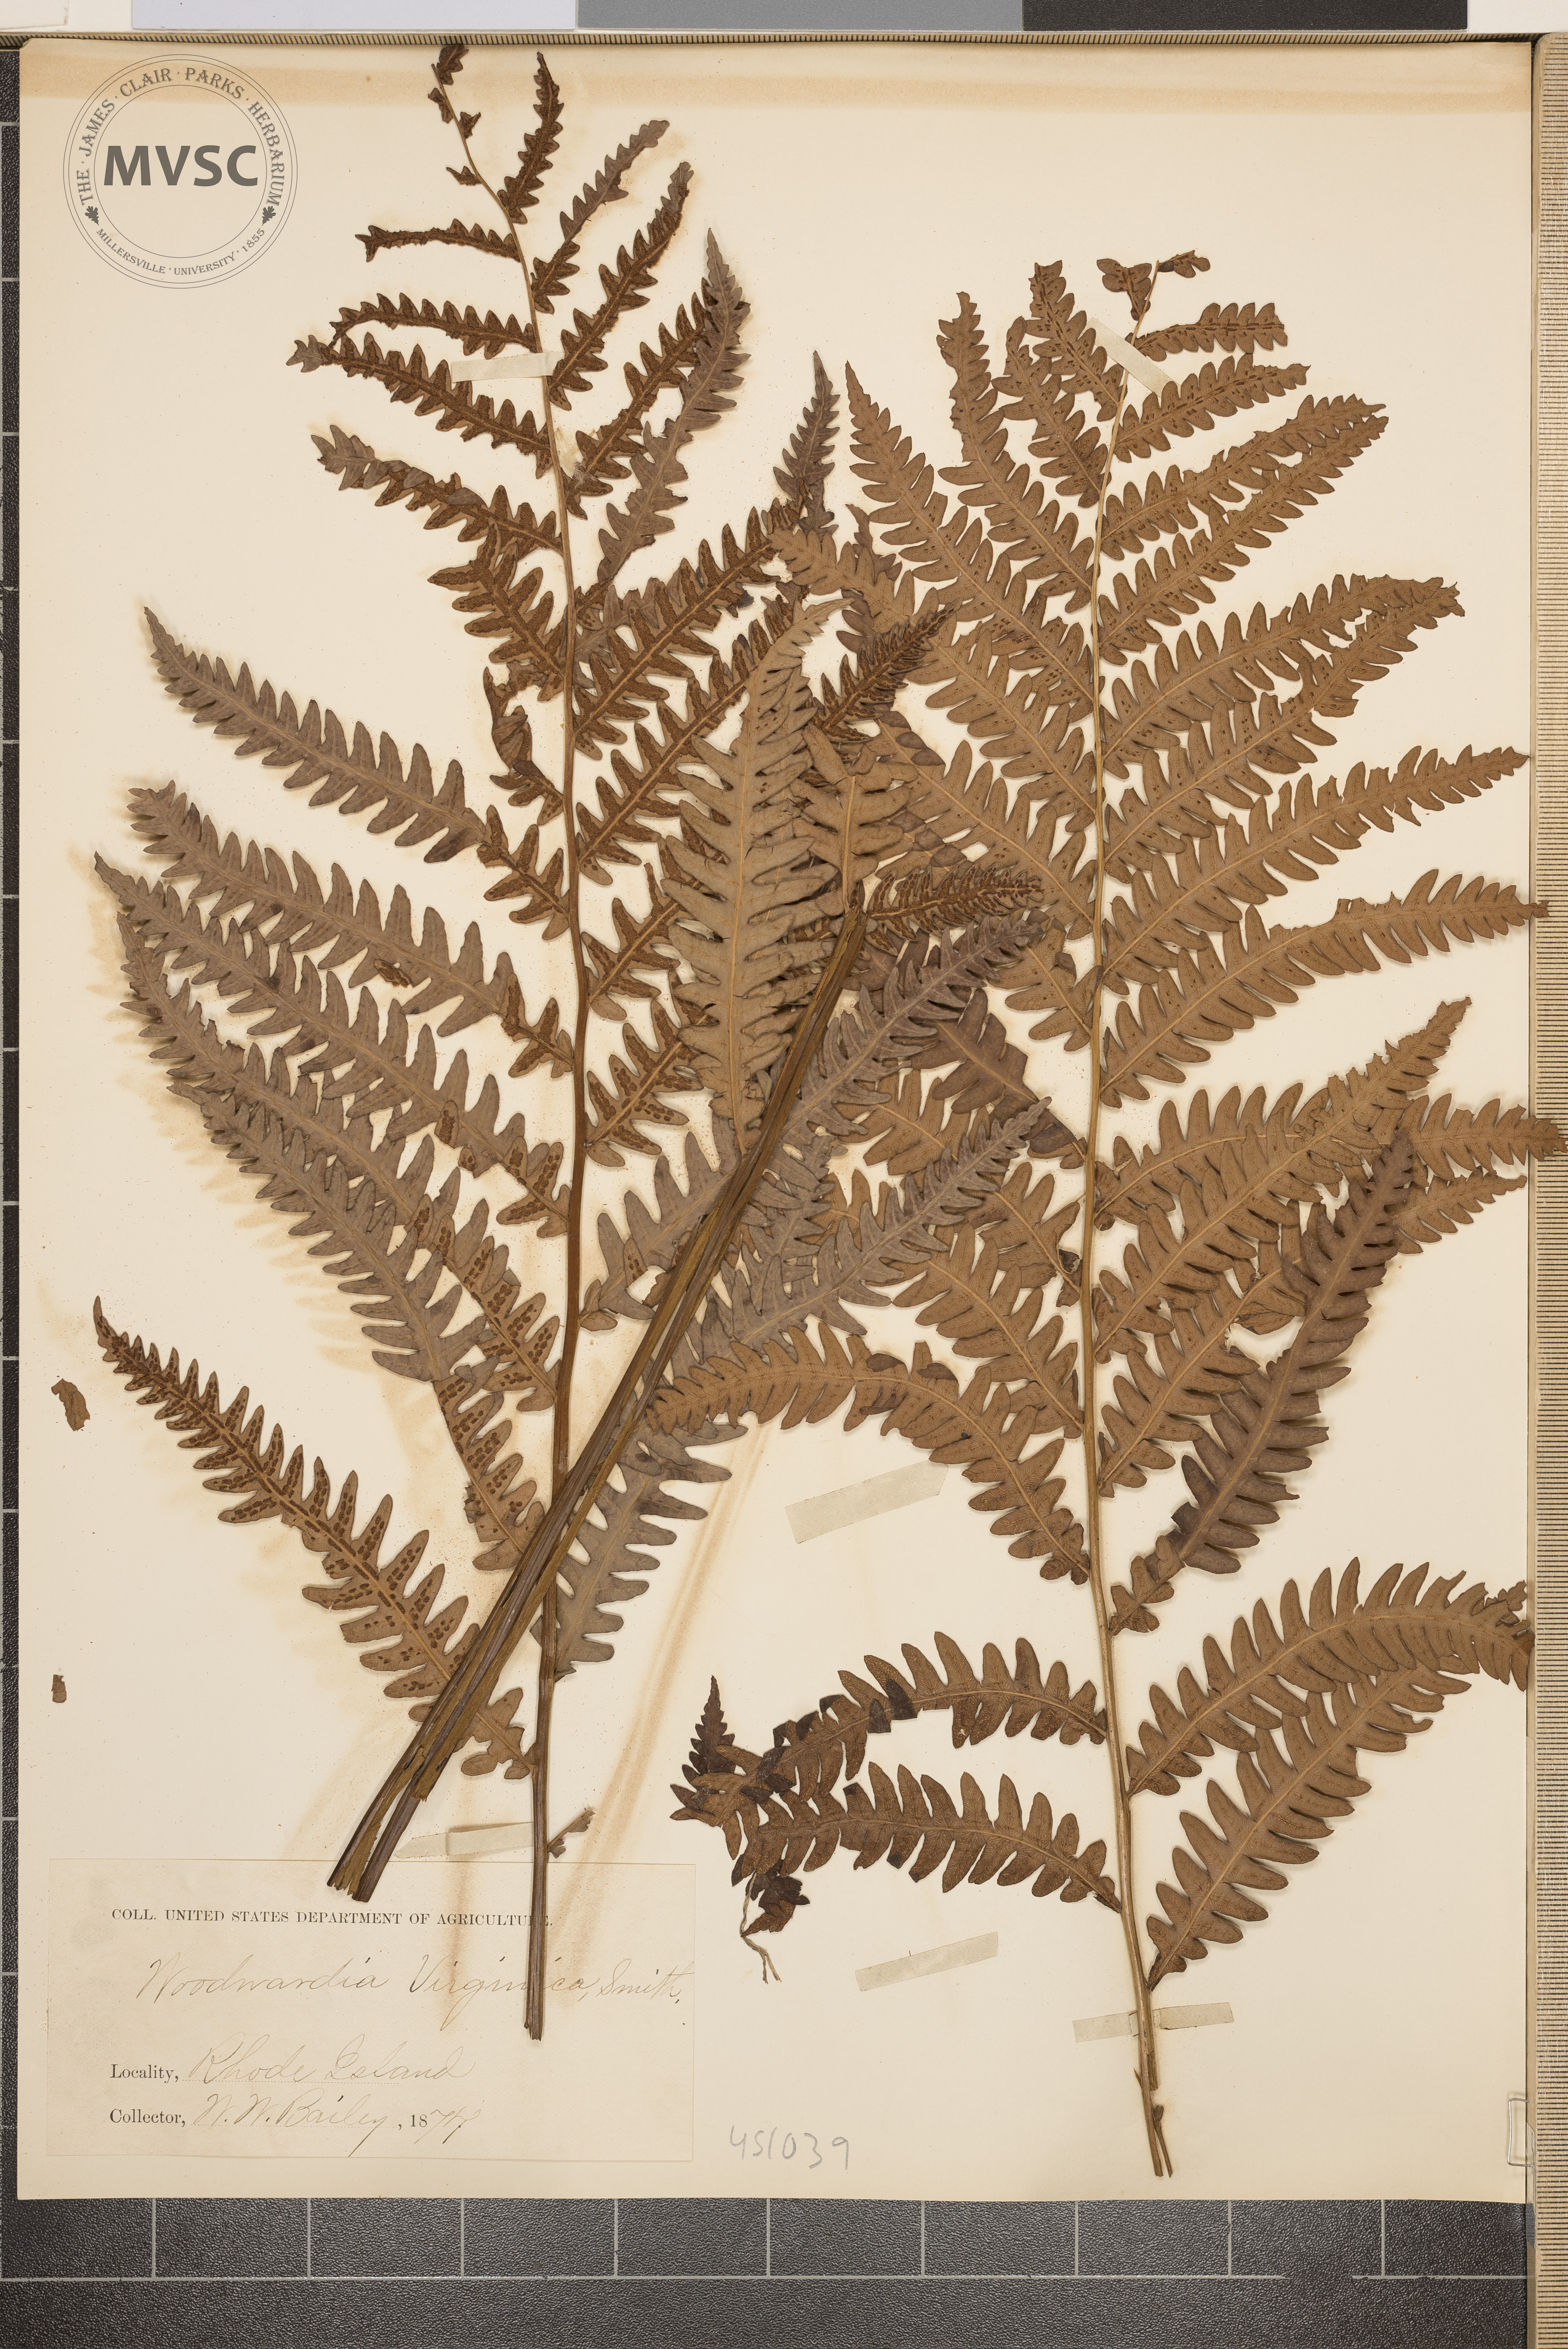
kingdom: Plantae
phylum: Tracheophyta
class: Polypodiopsida
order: Polypodiales
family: Blechnaceae
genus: Anchistea
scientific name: Anchistea virginica
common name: Virginia chain fern
